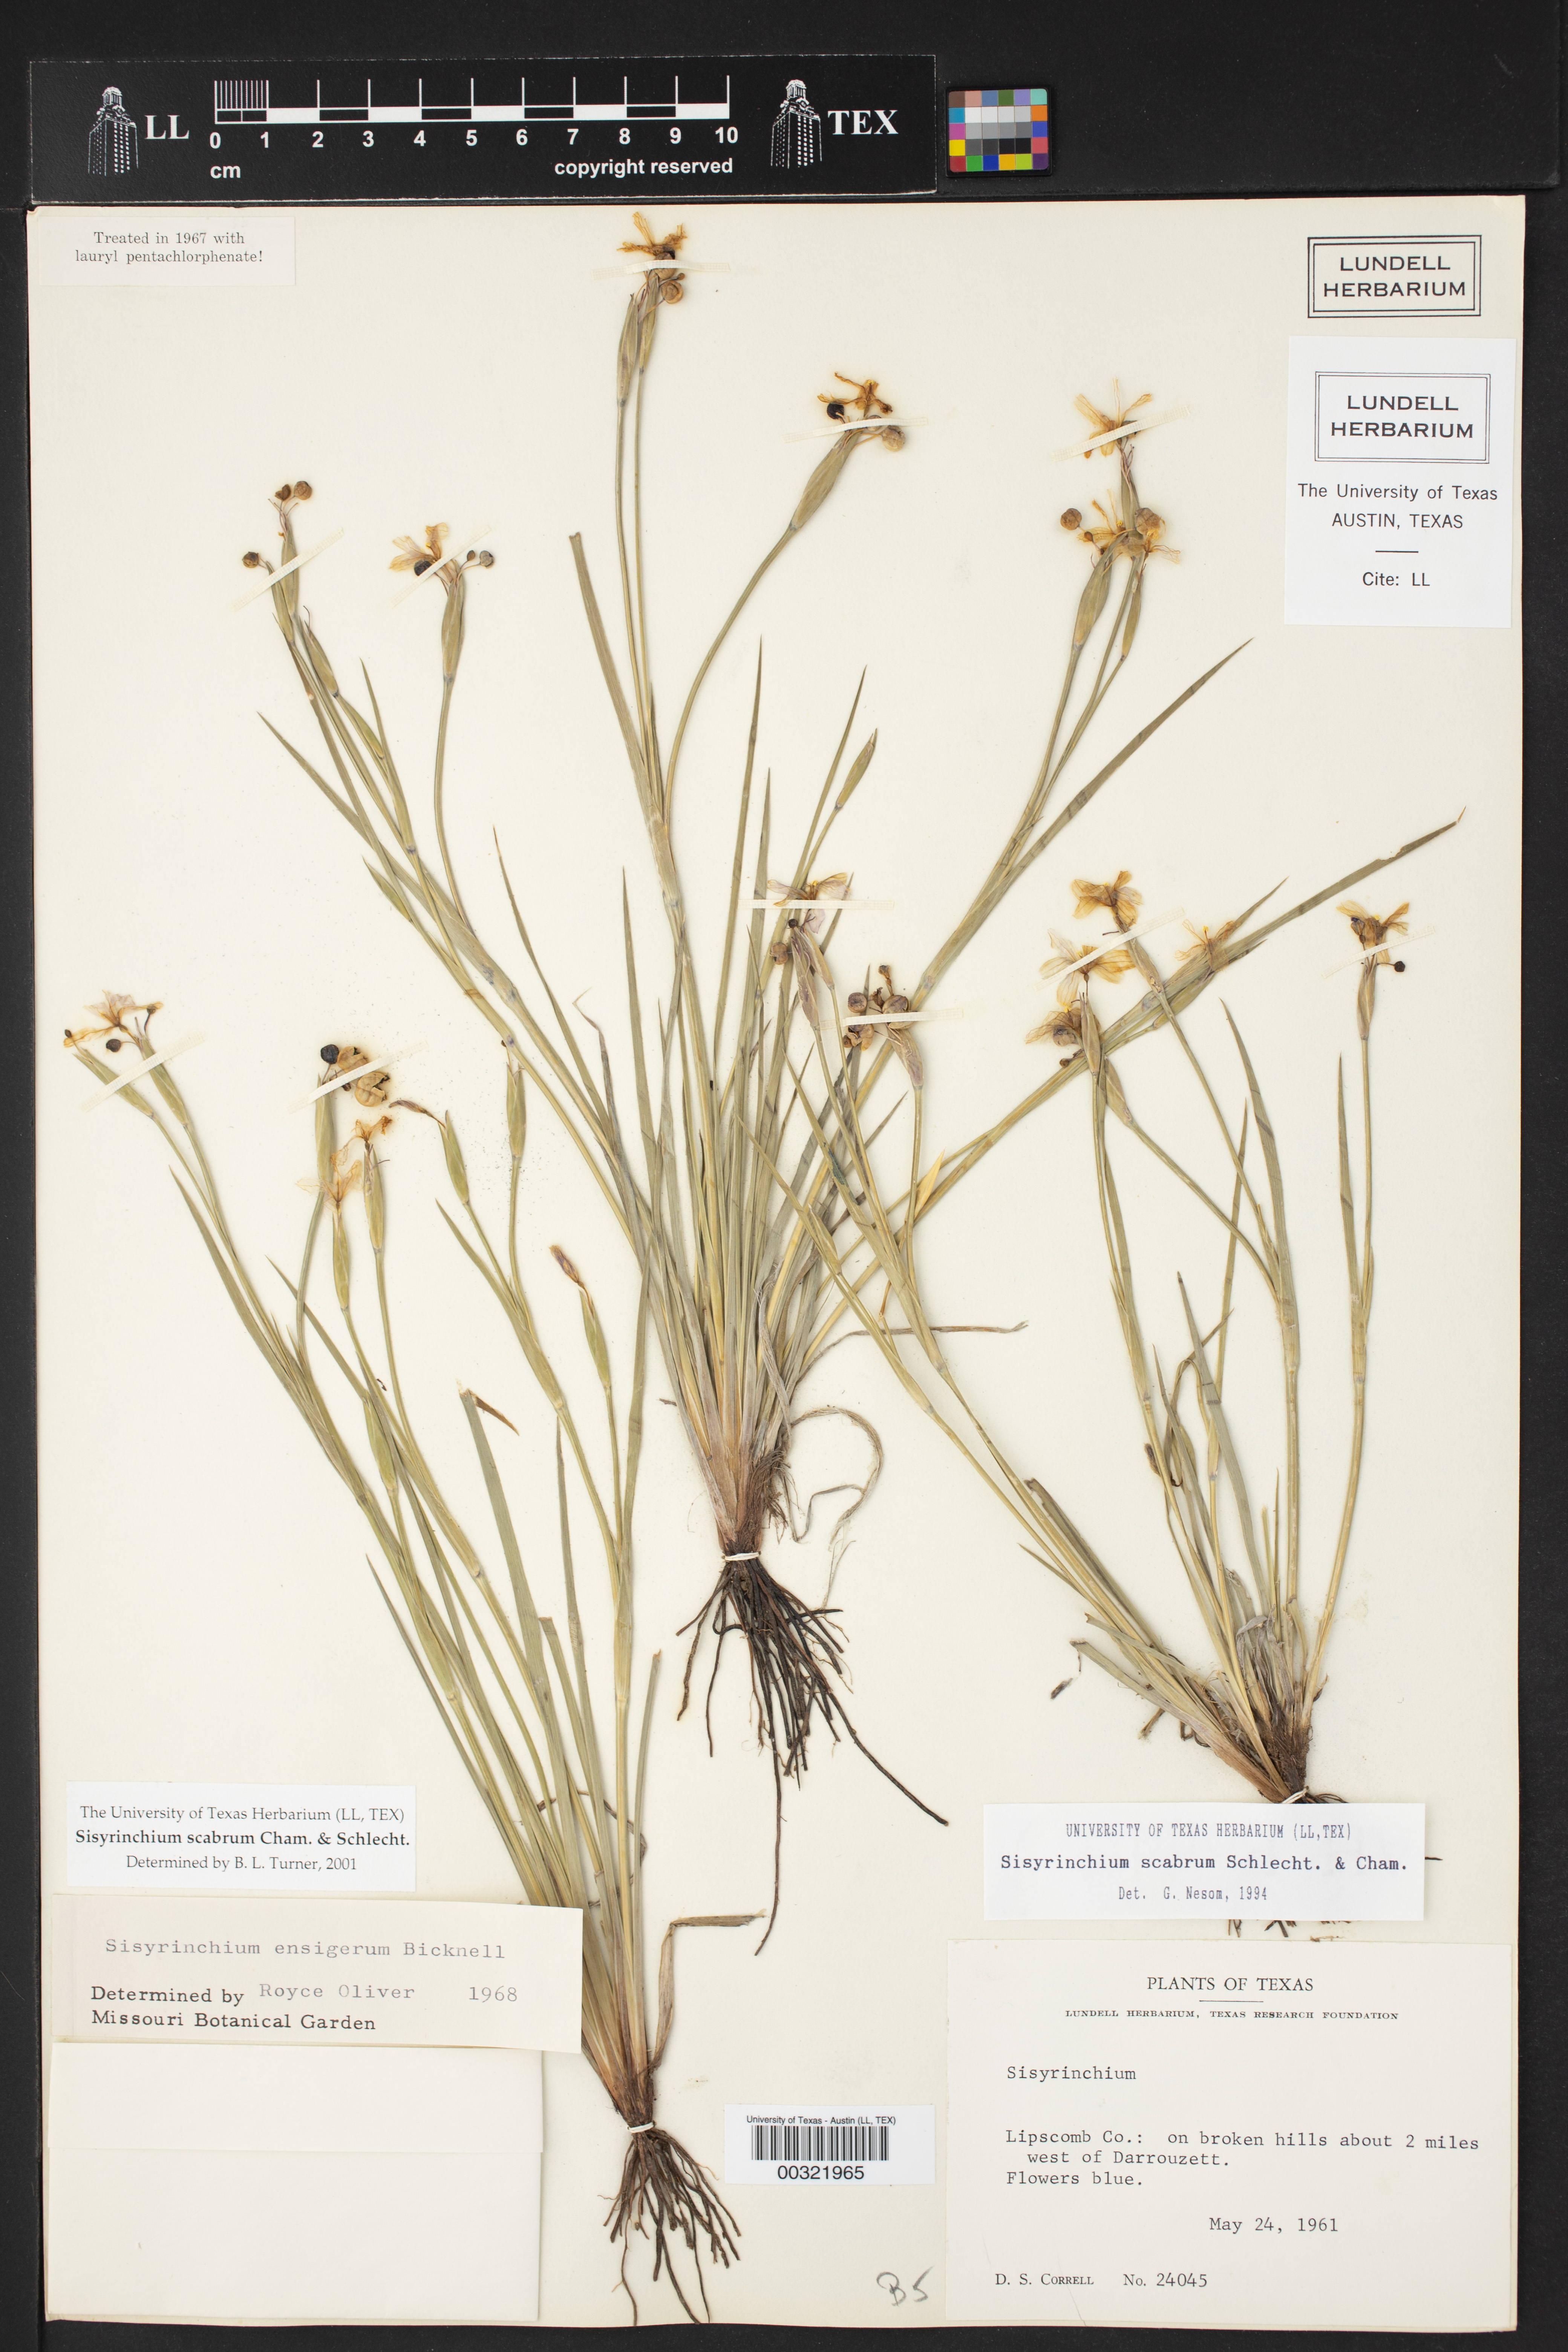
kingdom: Plantae
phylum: Tracheophyta
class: Liliopsida
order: Asparagales
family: Iridaceae
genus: Sisyrinchium
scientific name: Sisyrinchium scabrum
